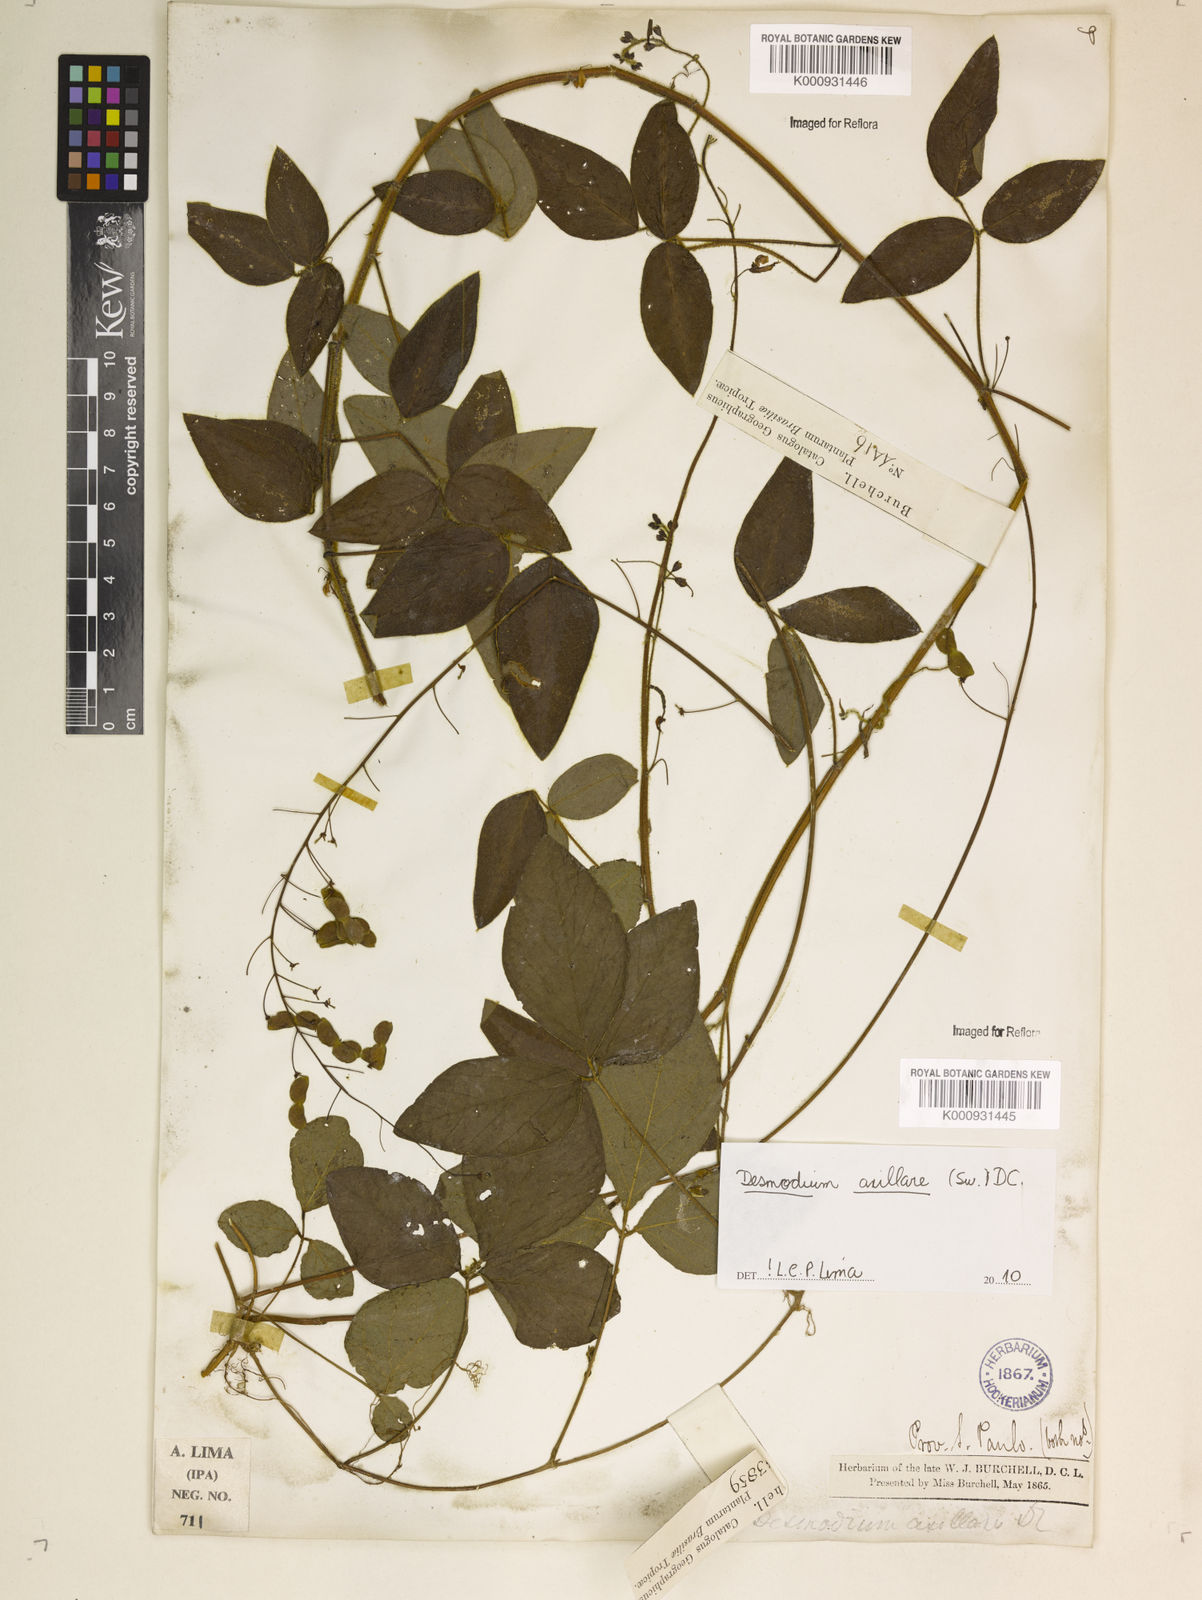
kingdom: Plantae
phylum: Tracheophyta
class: Magnoliopsida
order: Fabales
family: Fabaceae
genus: Desmodium
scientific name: Desmodium axillare
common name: Wire with
